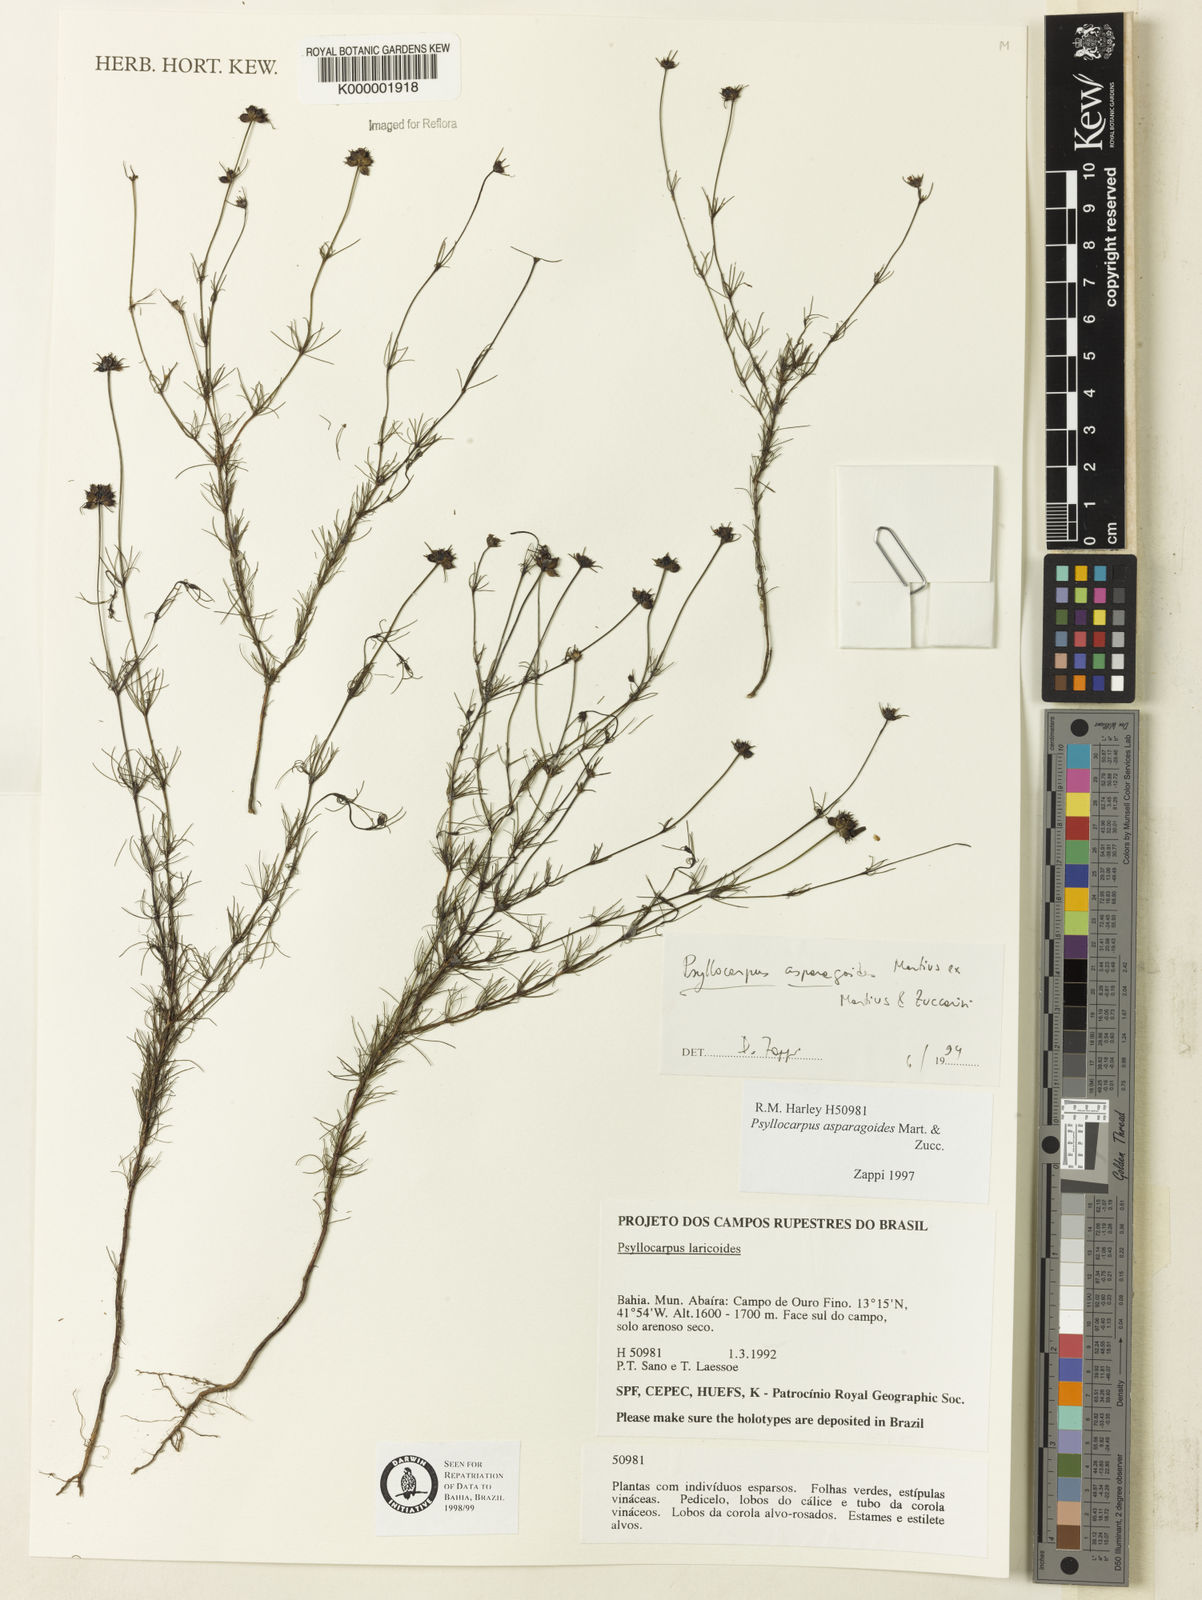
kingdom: Plantae
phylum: Tracheophyta
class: Magnoliopsida
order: Gentianales
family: Rubiaceae
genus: Psyllocarpus
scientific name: Psyllocarpus asparagoides
